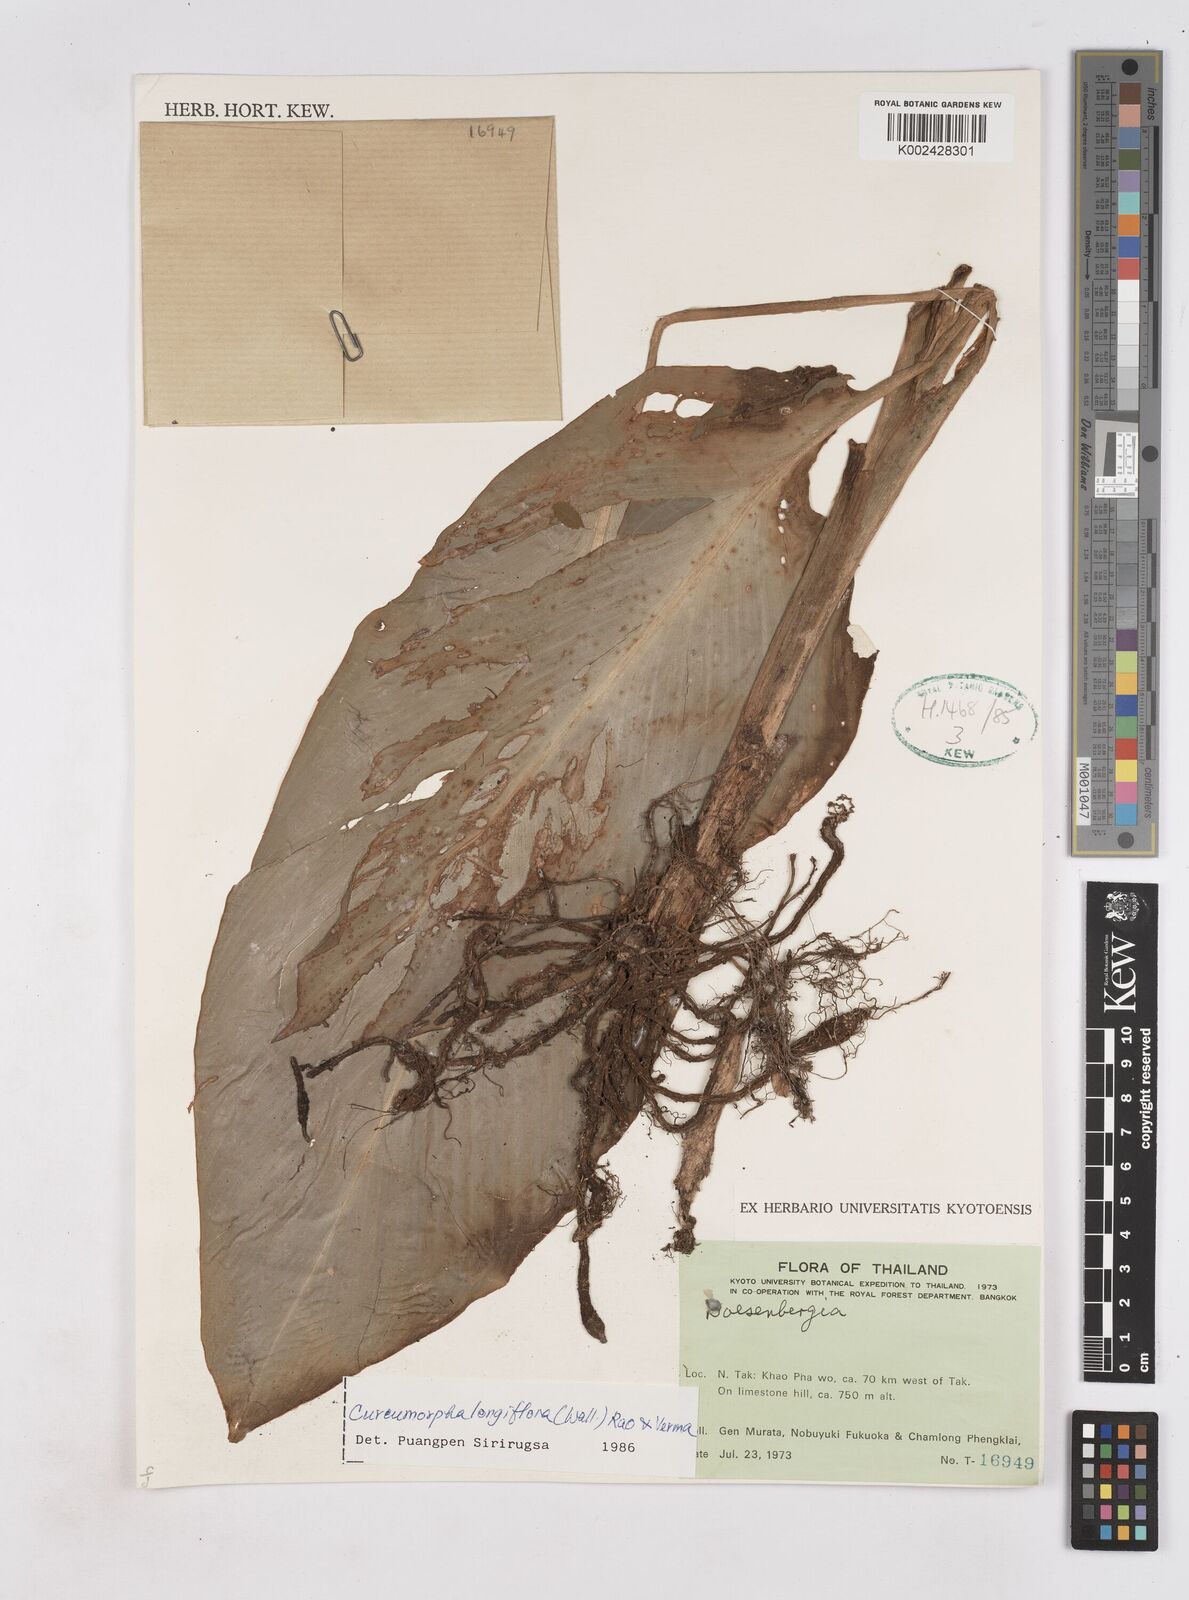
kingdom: Plantae
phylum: Tracheophyta
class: Liliopsida
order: Zingiberales
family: Zingiberaceae
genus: Boesenbergia
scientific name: Boesenbergia longiflora
